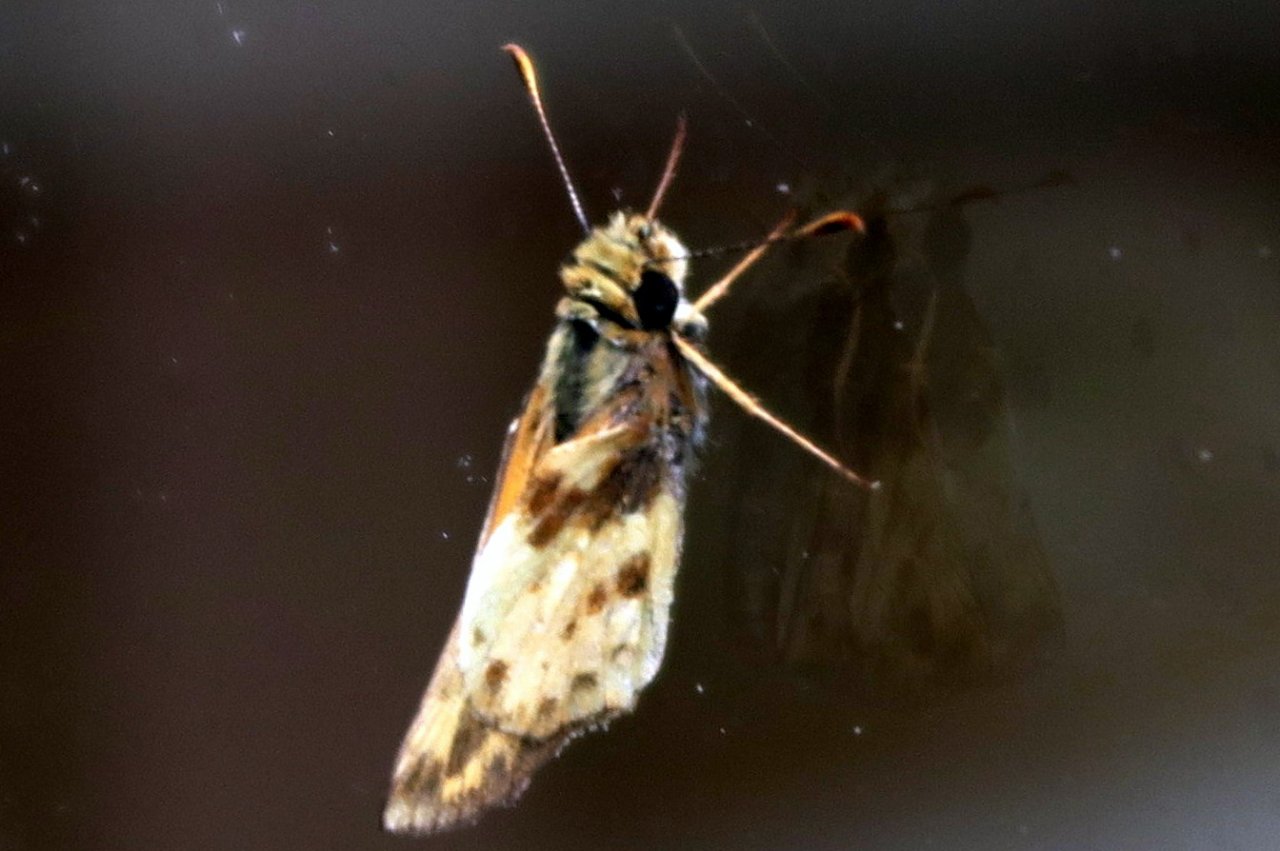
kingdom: Animalia
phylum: Arthropoda
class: Insecta
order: Lepidoptera
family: Hesperiidae
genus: Lon
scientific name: Lon zabulon
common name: Zabulon Skipper
